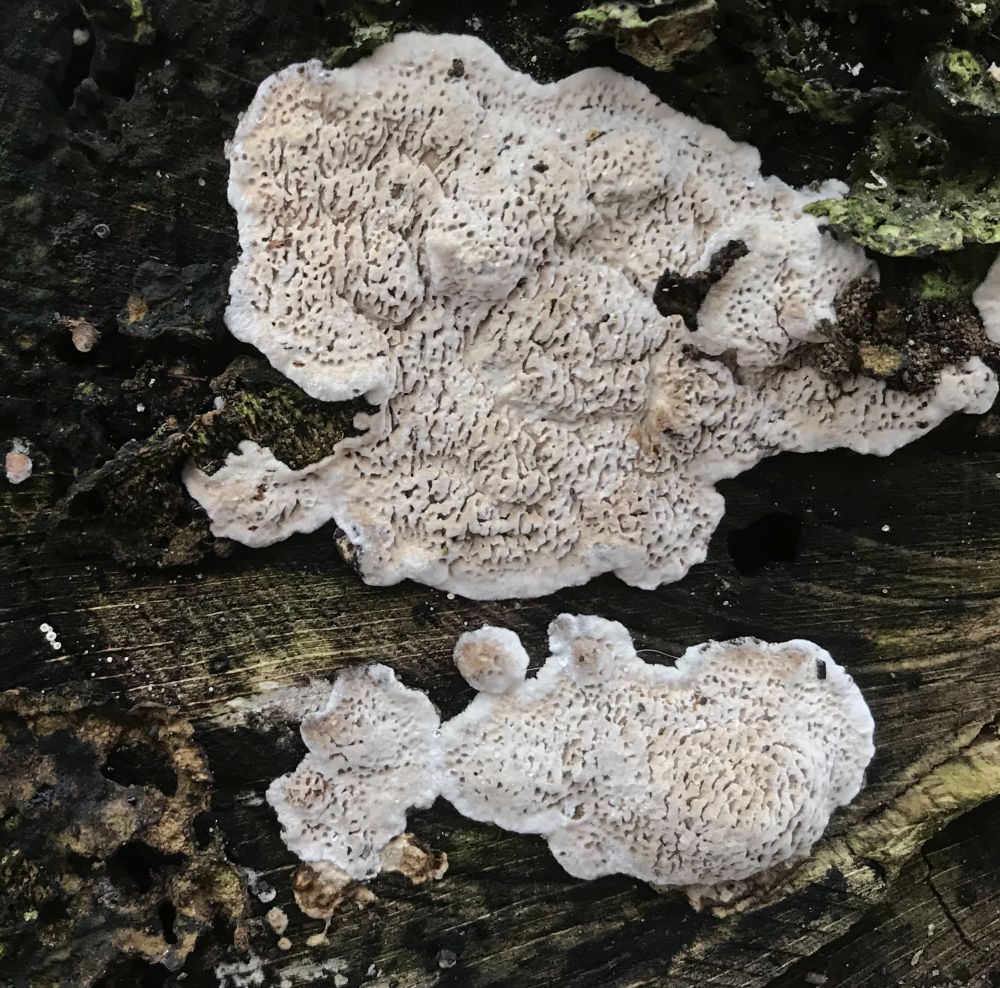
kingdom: Fungi
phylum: Basidiomycota
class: Agaricomycetes
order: Polyporales
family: Polyporaceae
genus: Podofomes
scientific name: Podofomes mollis
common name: blød begporesvamp
